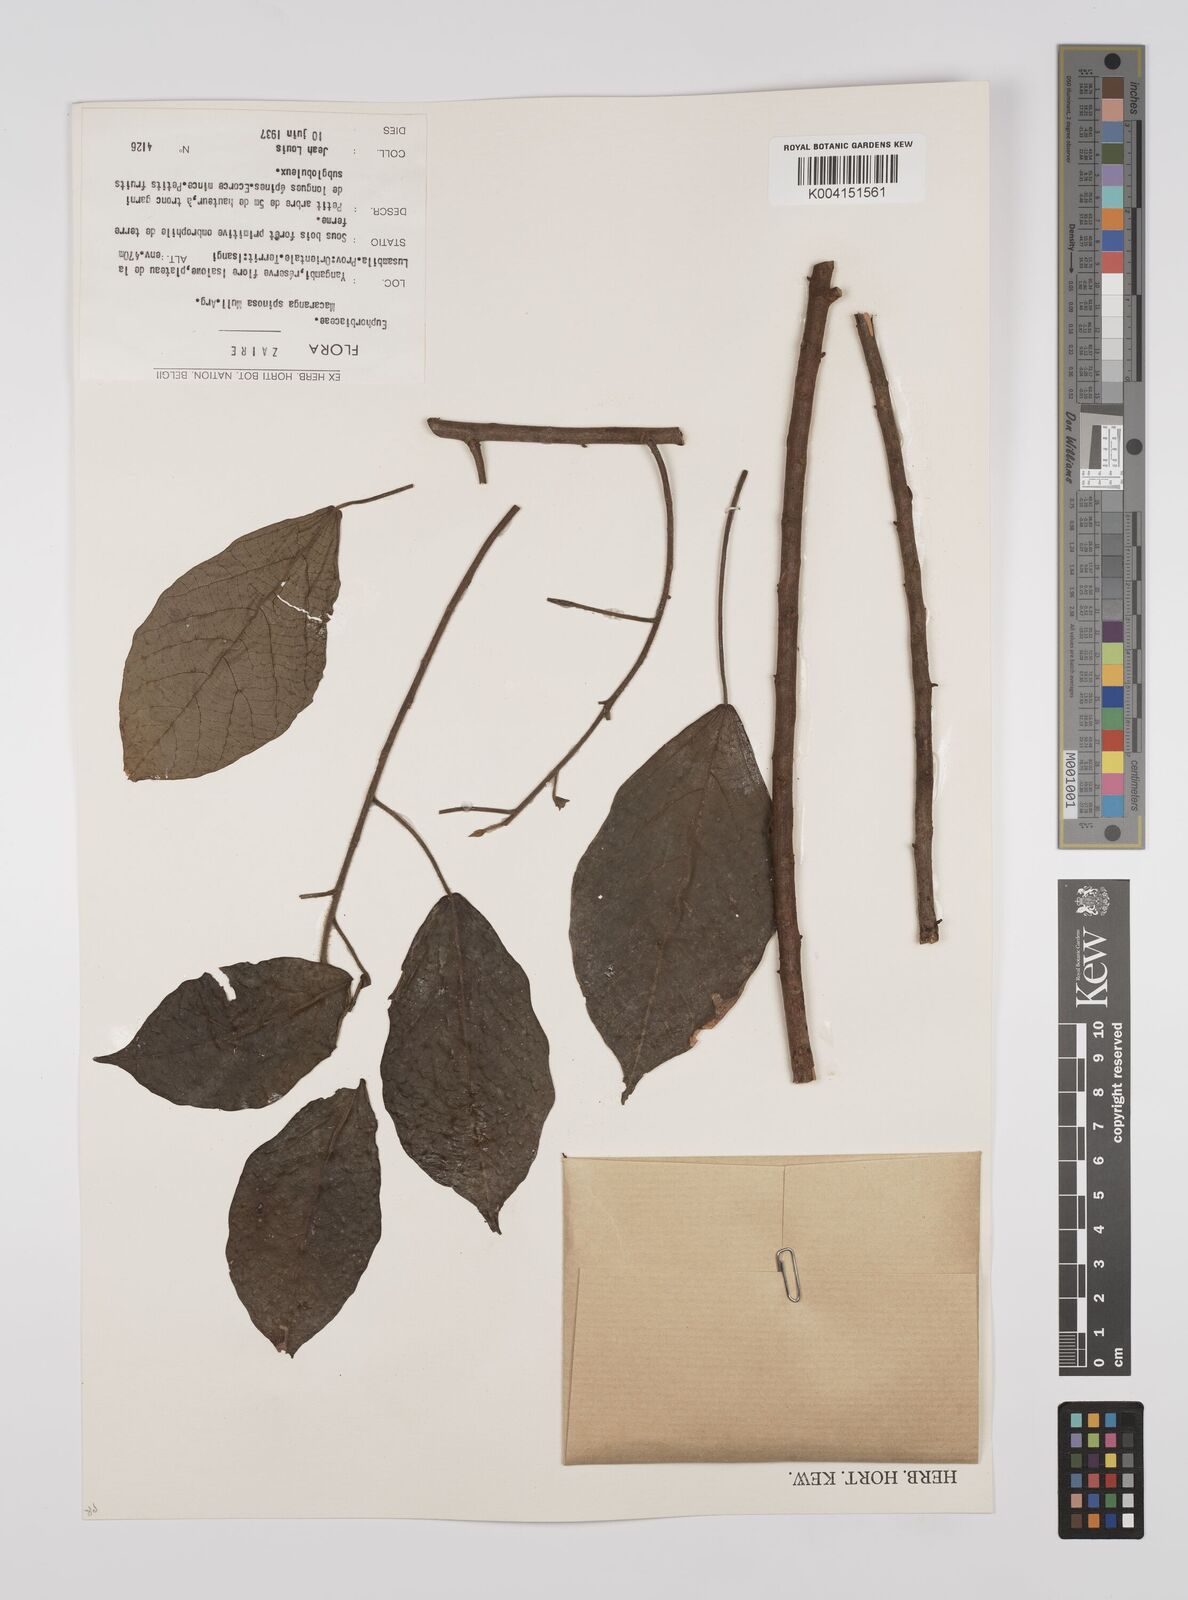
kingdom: Plantae
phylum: Tracheophyta
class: Magnoliopsida
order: Malpighiales
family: Euphorbiaceae
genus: Macaranga
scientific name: Macaranga spinosa
